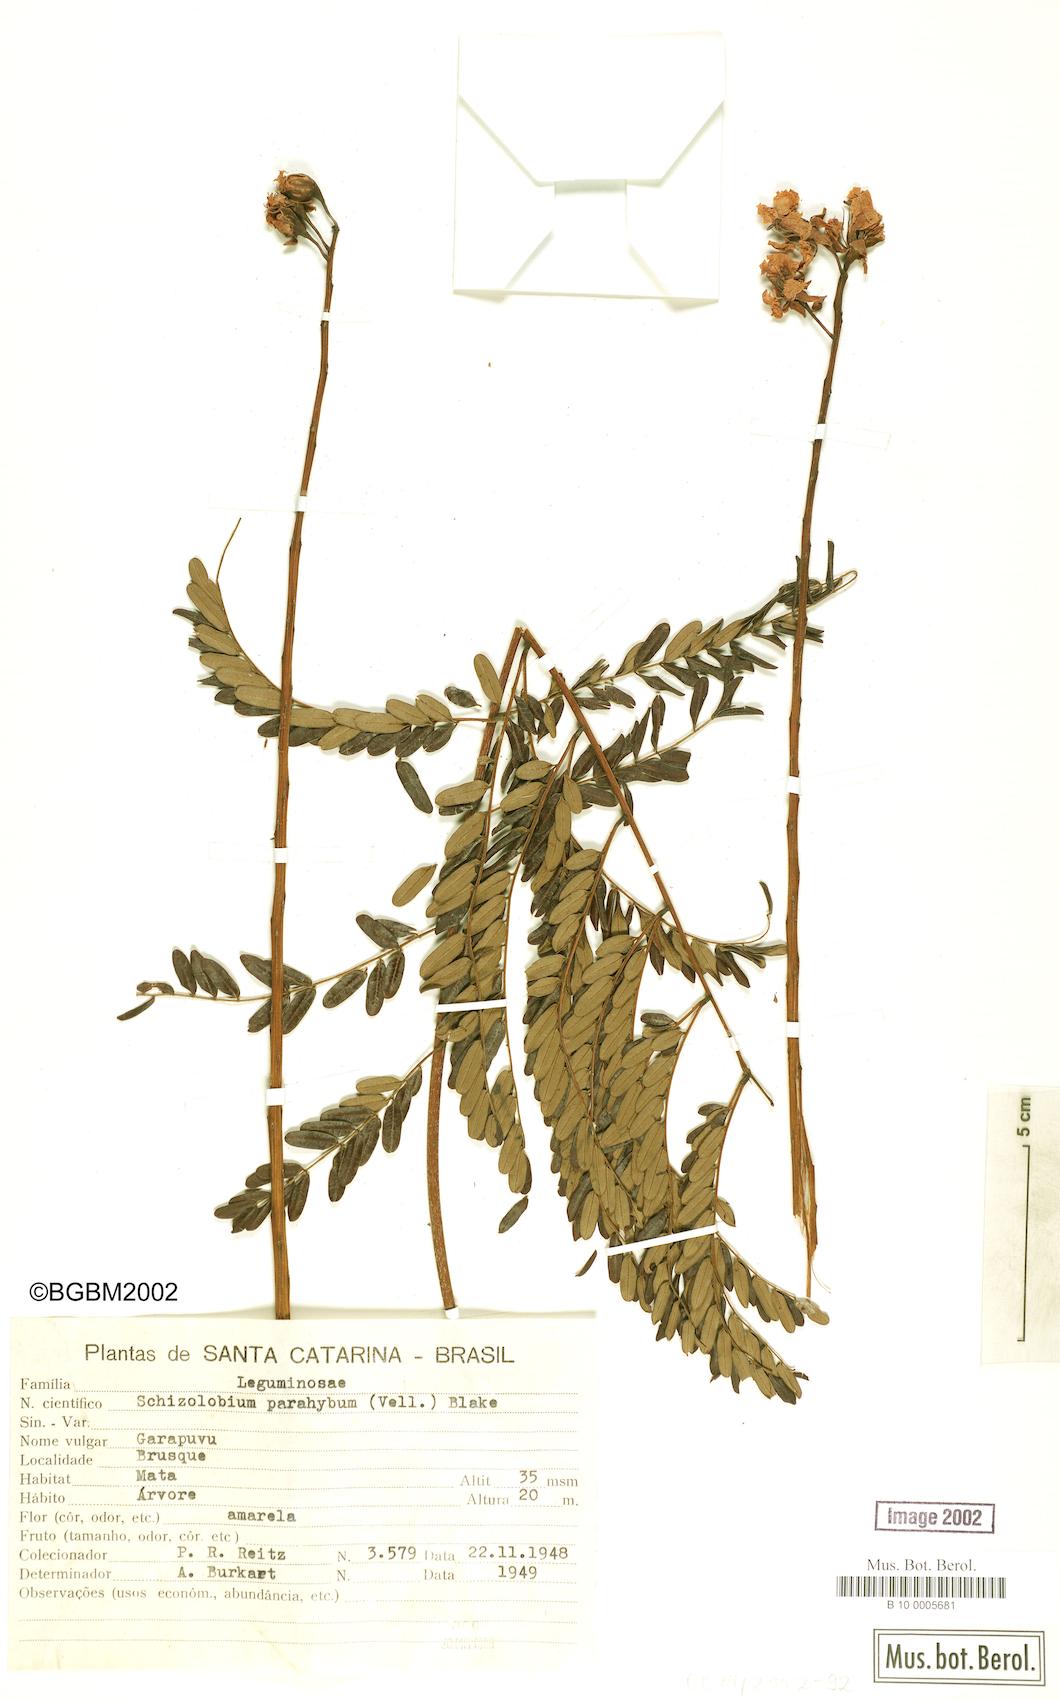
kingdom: Plantae
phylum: Tracheophyta
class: Magnoliopsida
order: Fabales
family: Fabaceae
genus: Schizolobium
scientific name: Schizolobium parahyba
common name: Brazilian firetree
